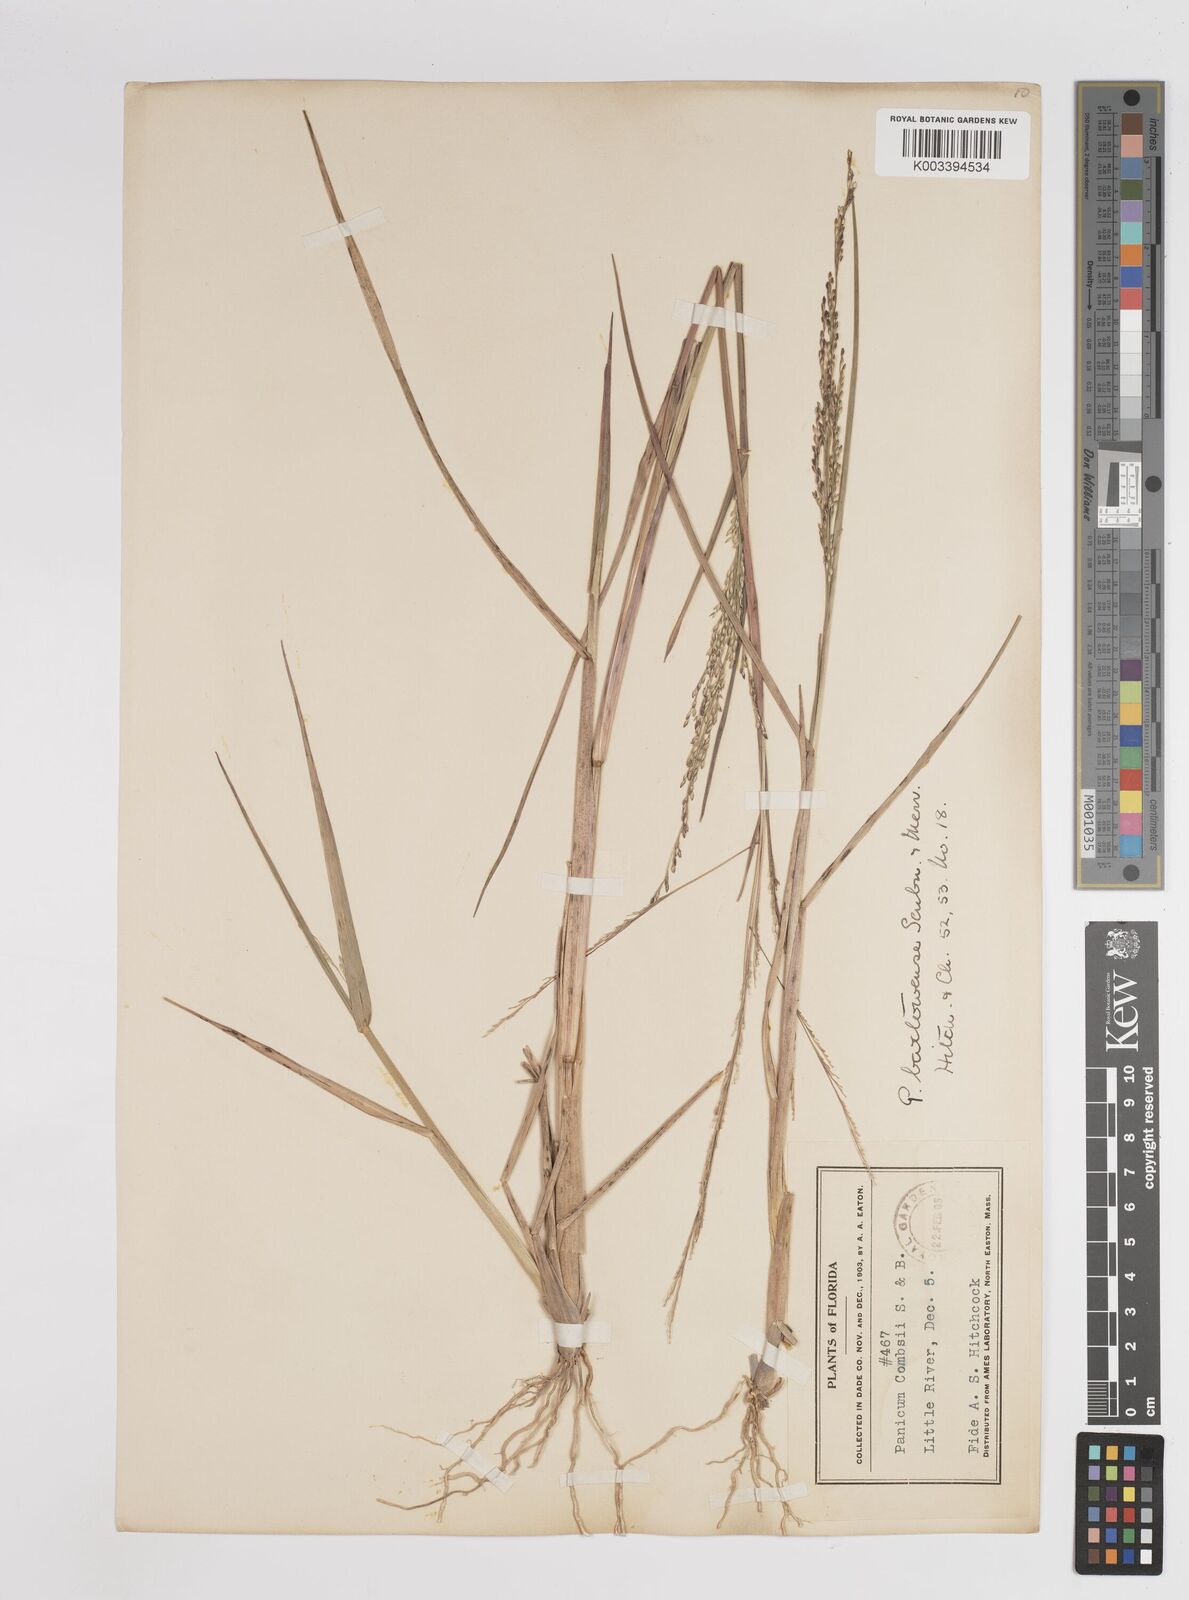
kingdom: Plantae
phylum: Tracheophyta
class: Liliopsida
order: Poales
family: Poaceae
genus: Panicum
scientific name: Panicum bartowense
